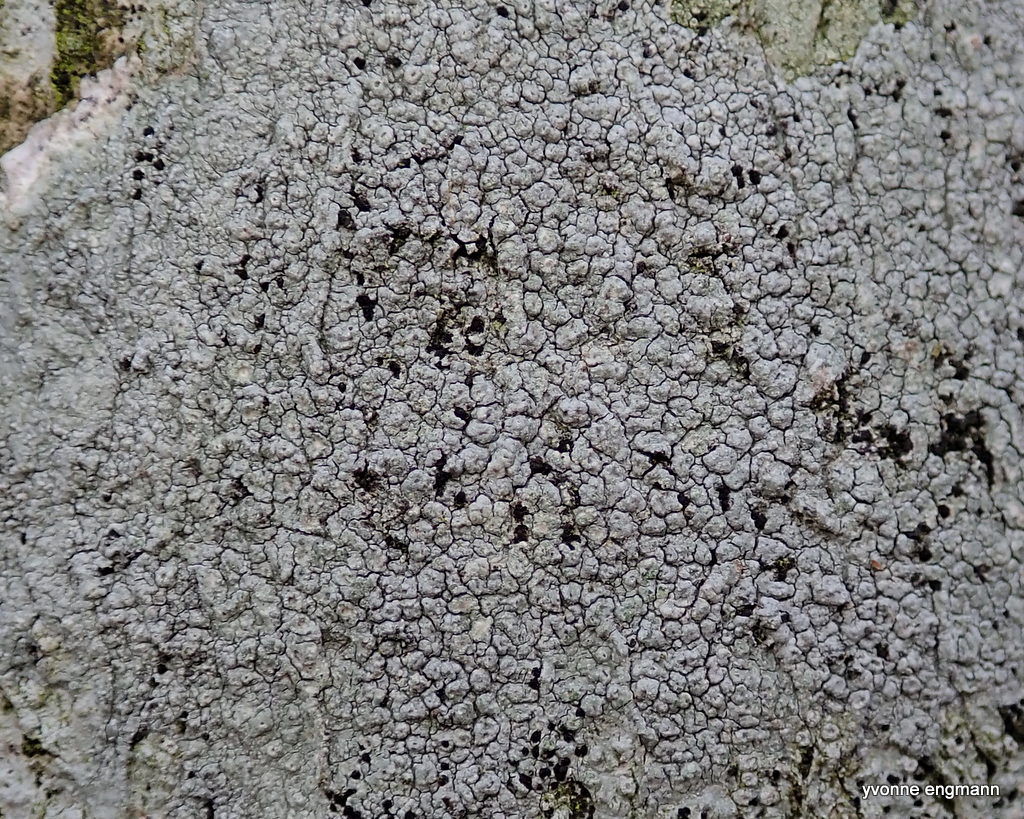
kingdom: Fungi
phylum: Ascomycota
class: Lecanoromycetes
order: Pertusariales
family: Pertusariaceae
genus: Pertusaria
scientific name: Pertusaria pertusa
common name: almindelig prikvortelav
